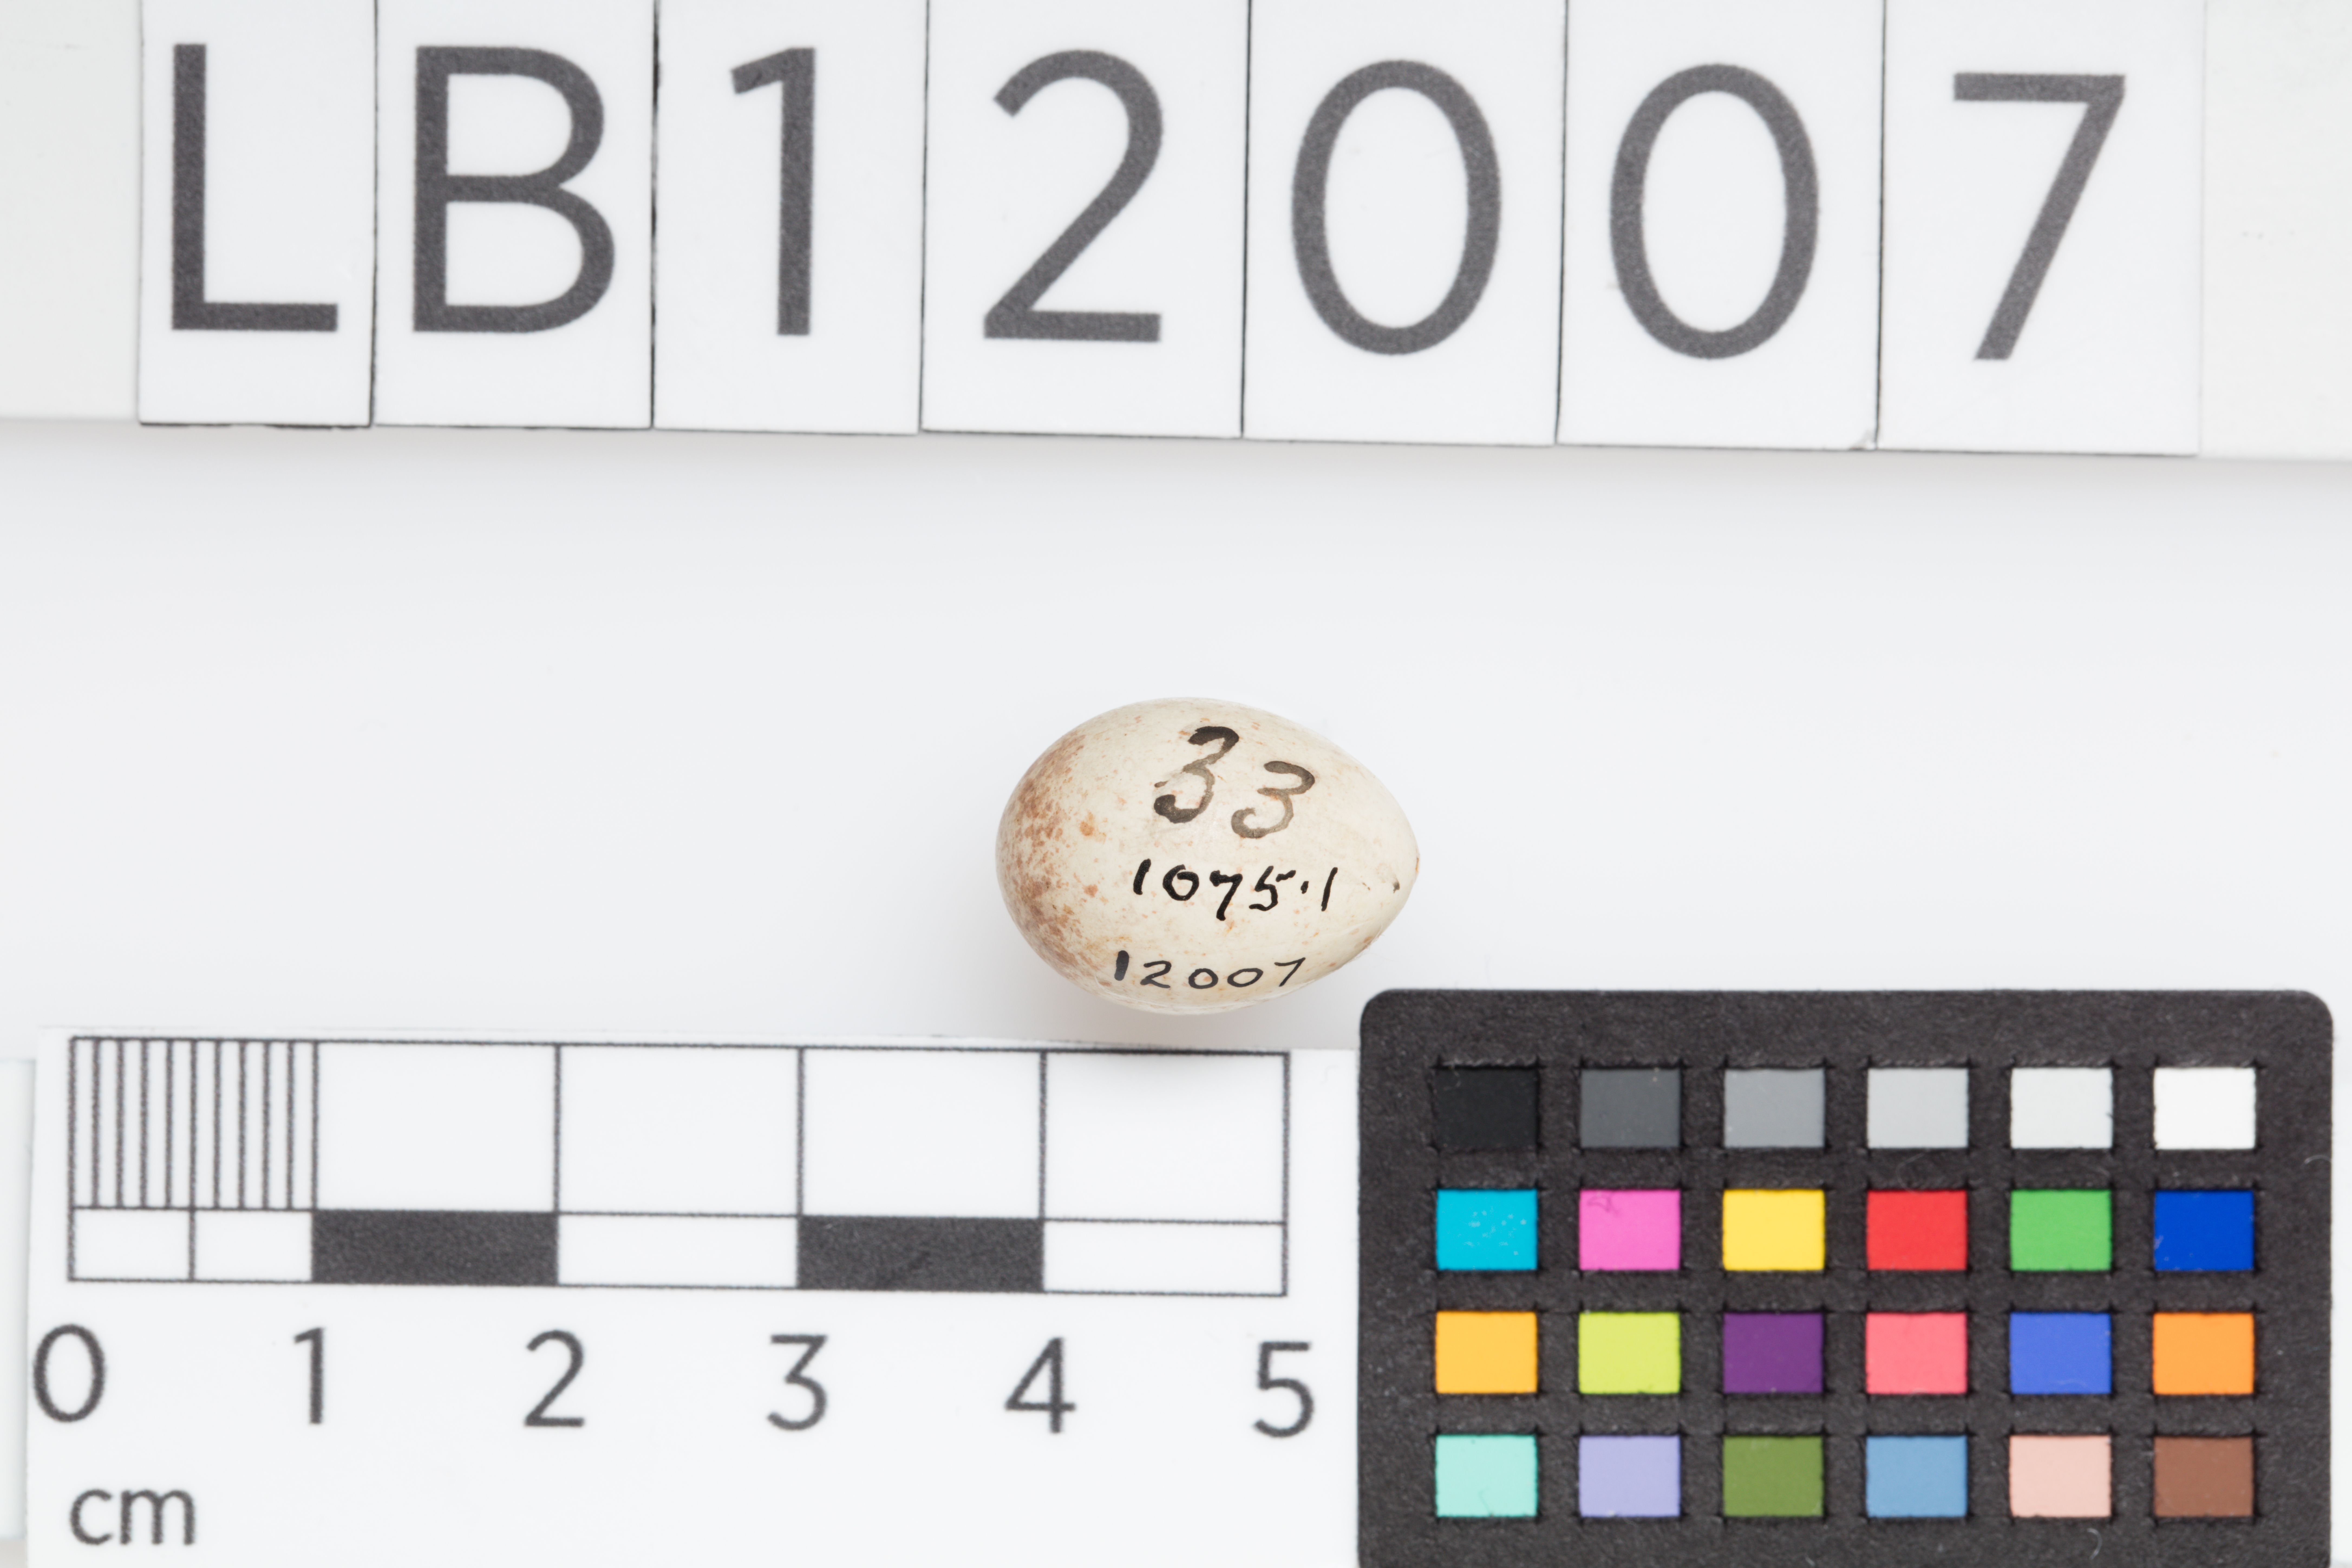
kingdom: Animalia
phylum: Chordata
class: Aves
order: Passeriformes
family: Fringillidae
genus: Carduelis
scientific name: Carduelis carduelis
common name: European goldfinch
